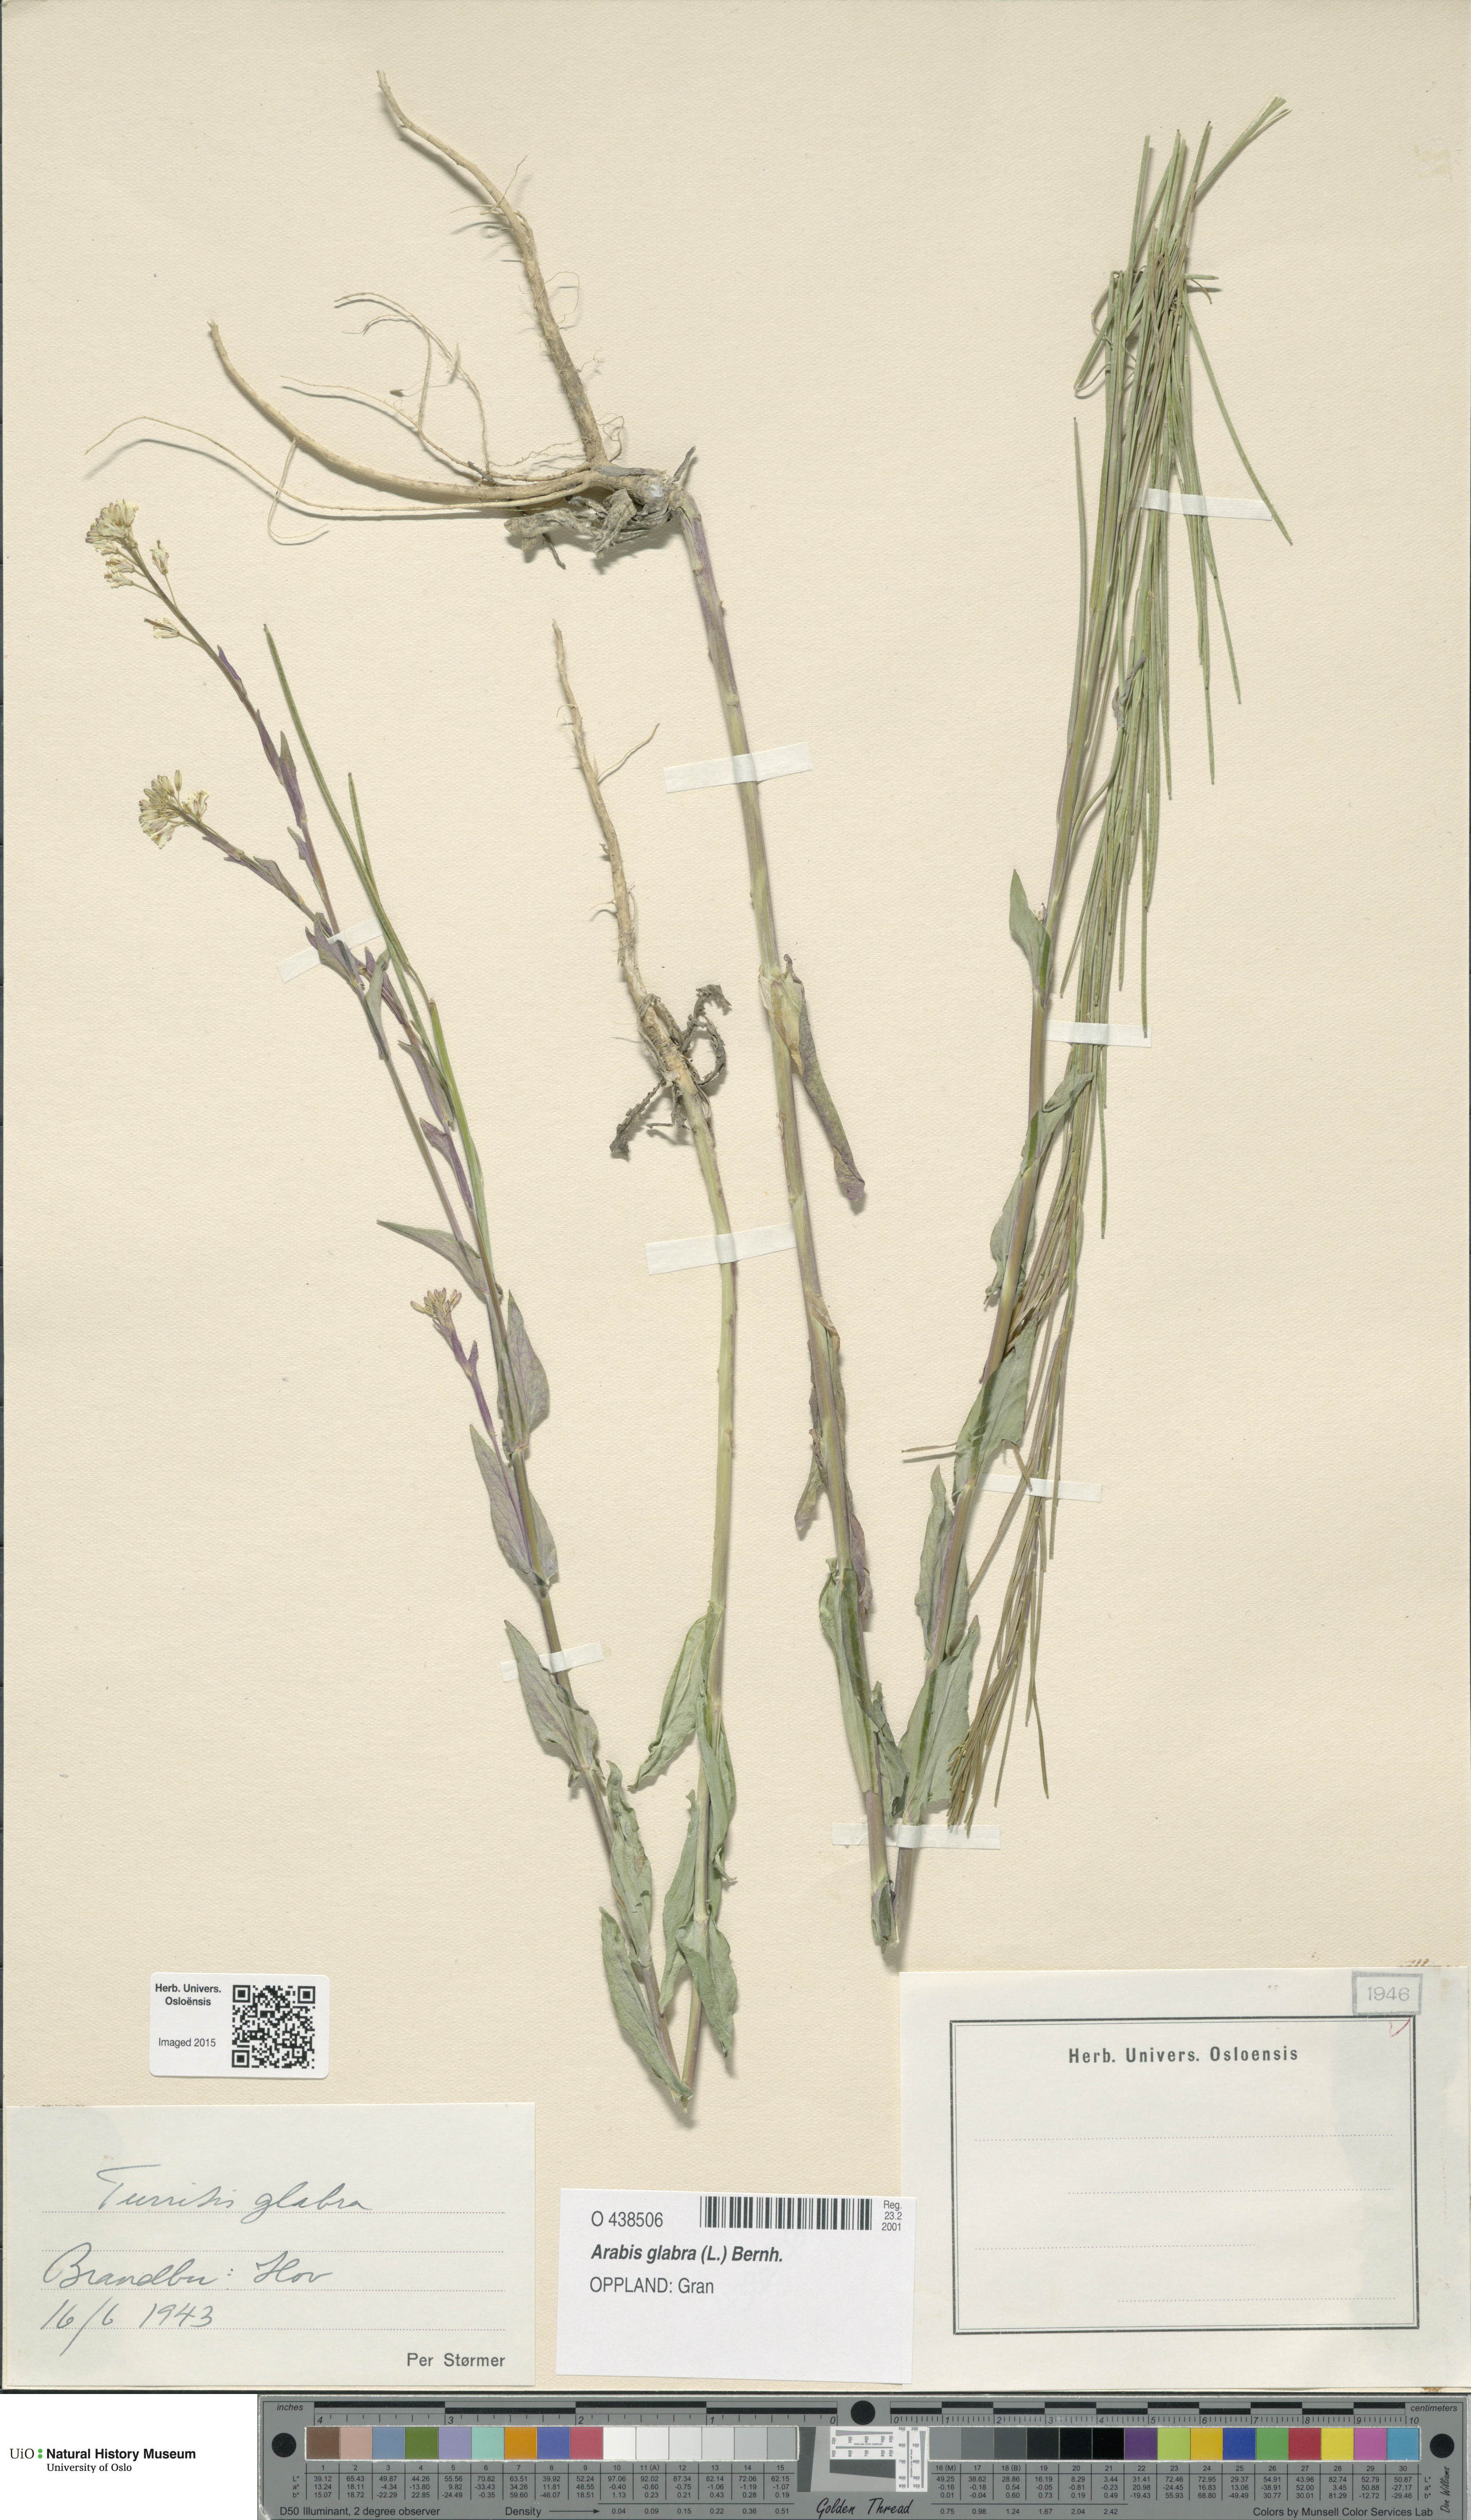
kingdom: Plantae
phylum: Tracheophyta
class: Magnoliopsida
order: Brassicales
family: Brassicaceae
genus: Turritis
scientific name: Turritis glabra
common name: Tower rockcress
